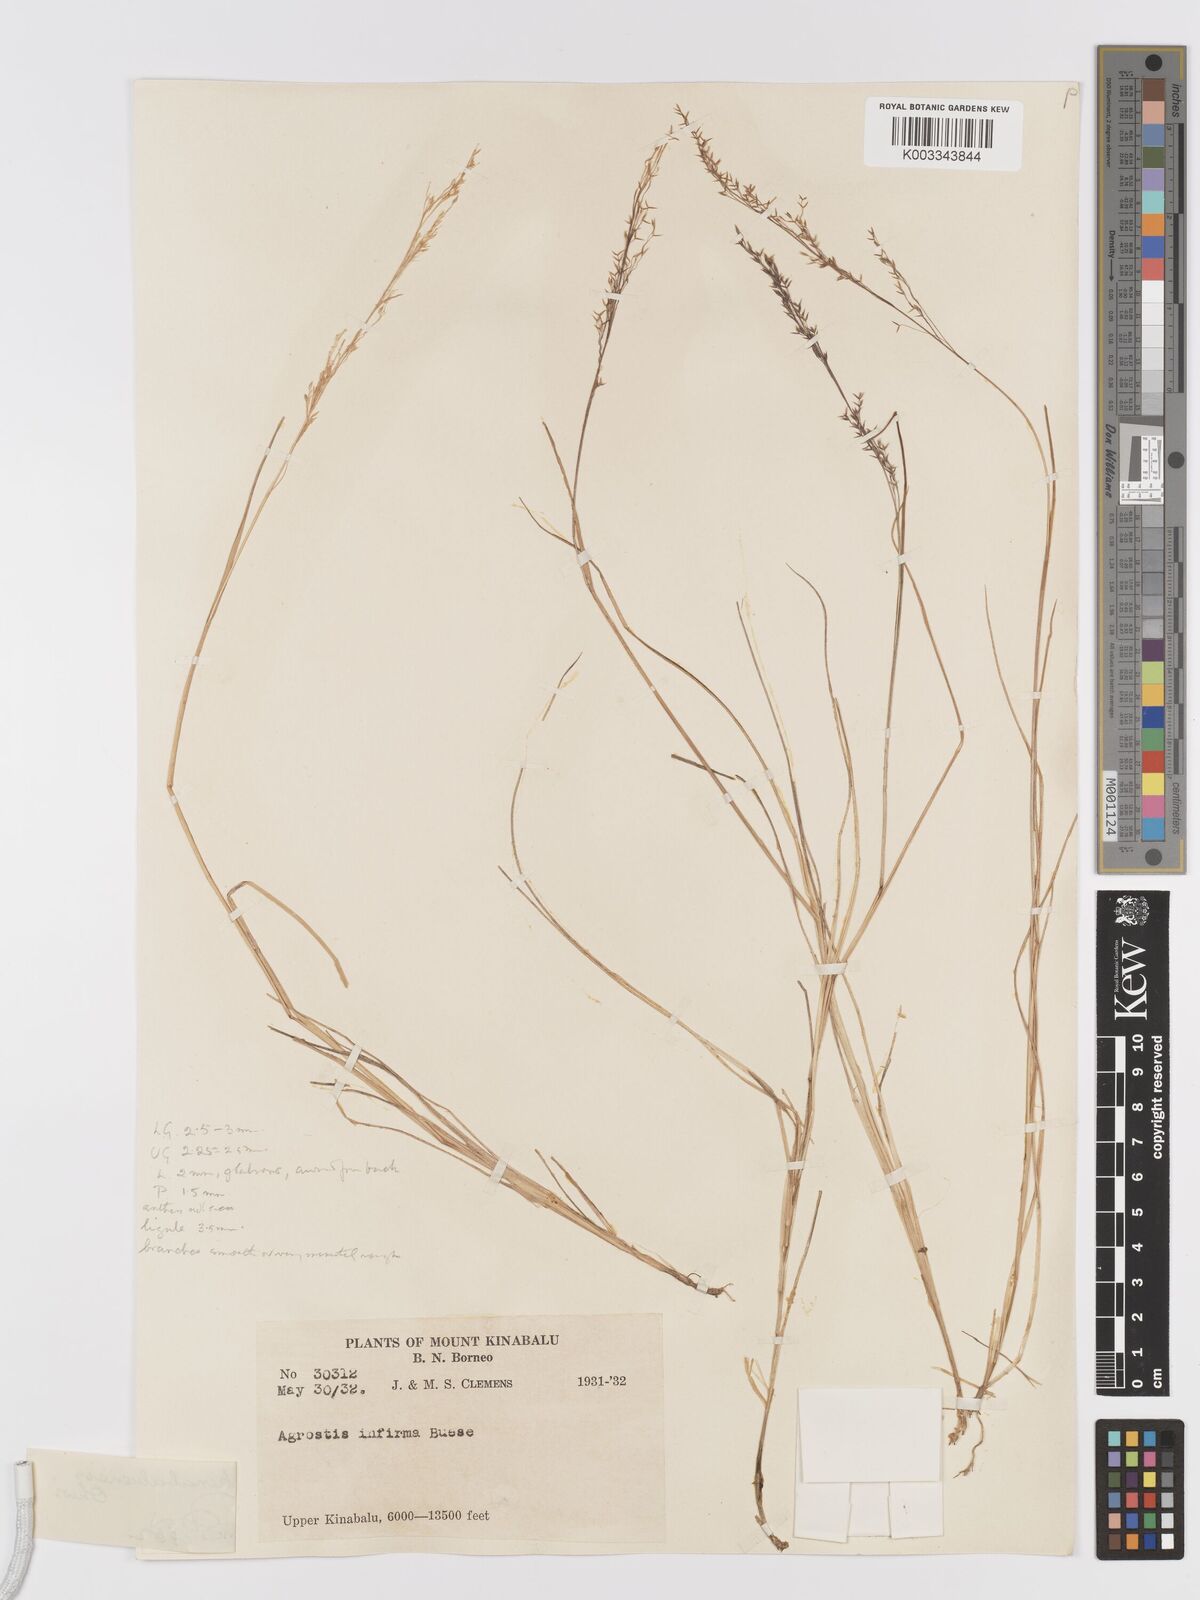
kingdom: Plantae
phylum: Tracheophyta
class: Liliopsida
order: Poales
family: Poaceae
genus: Agrostis
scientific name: Agrostis infirma
